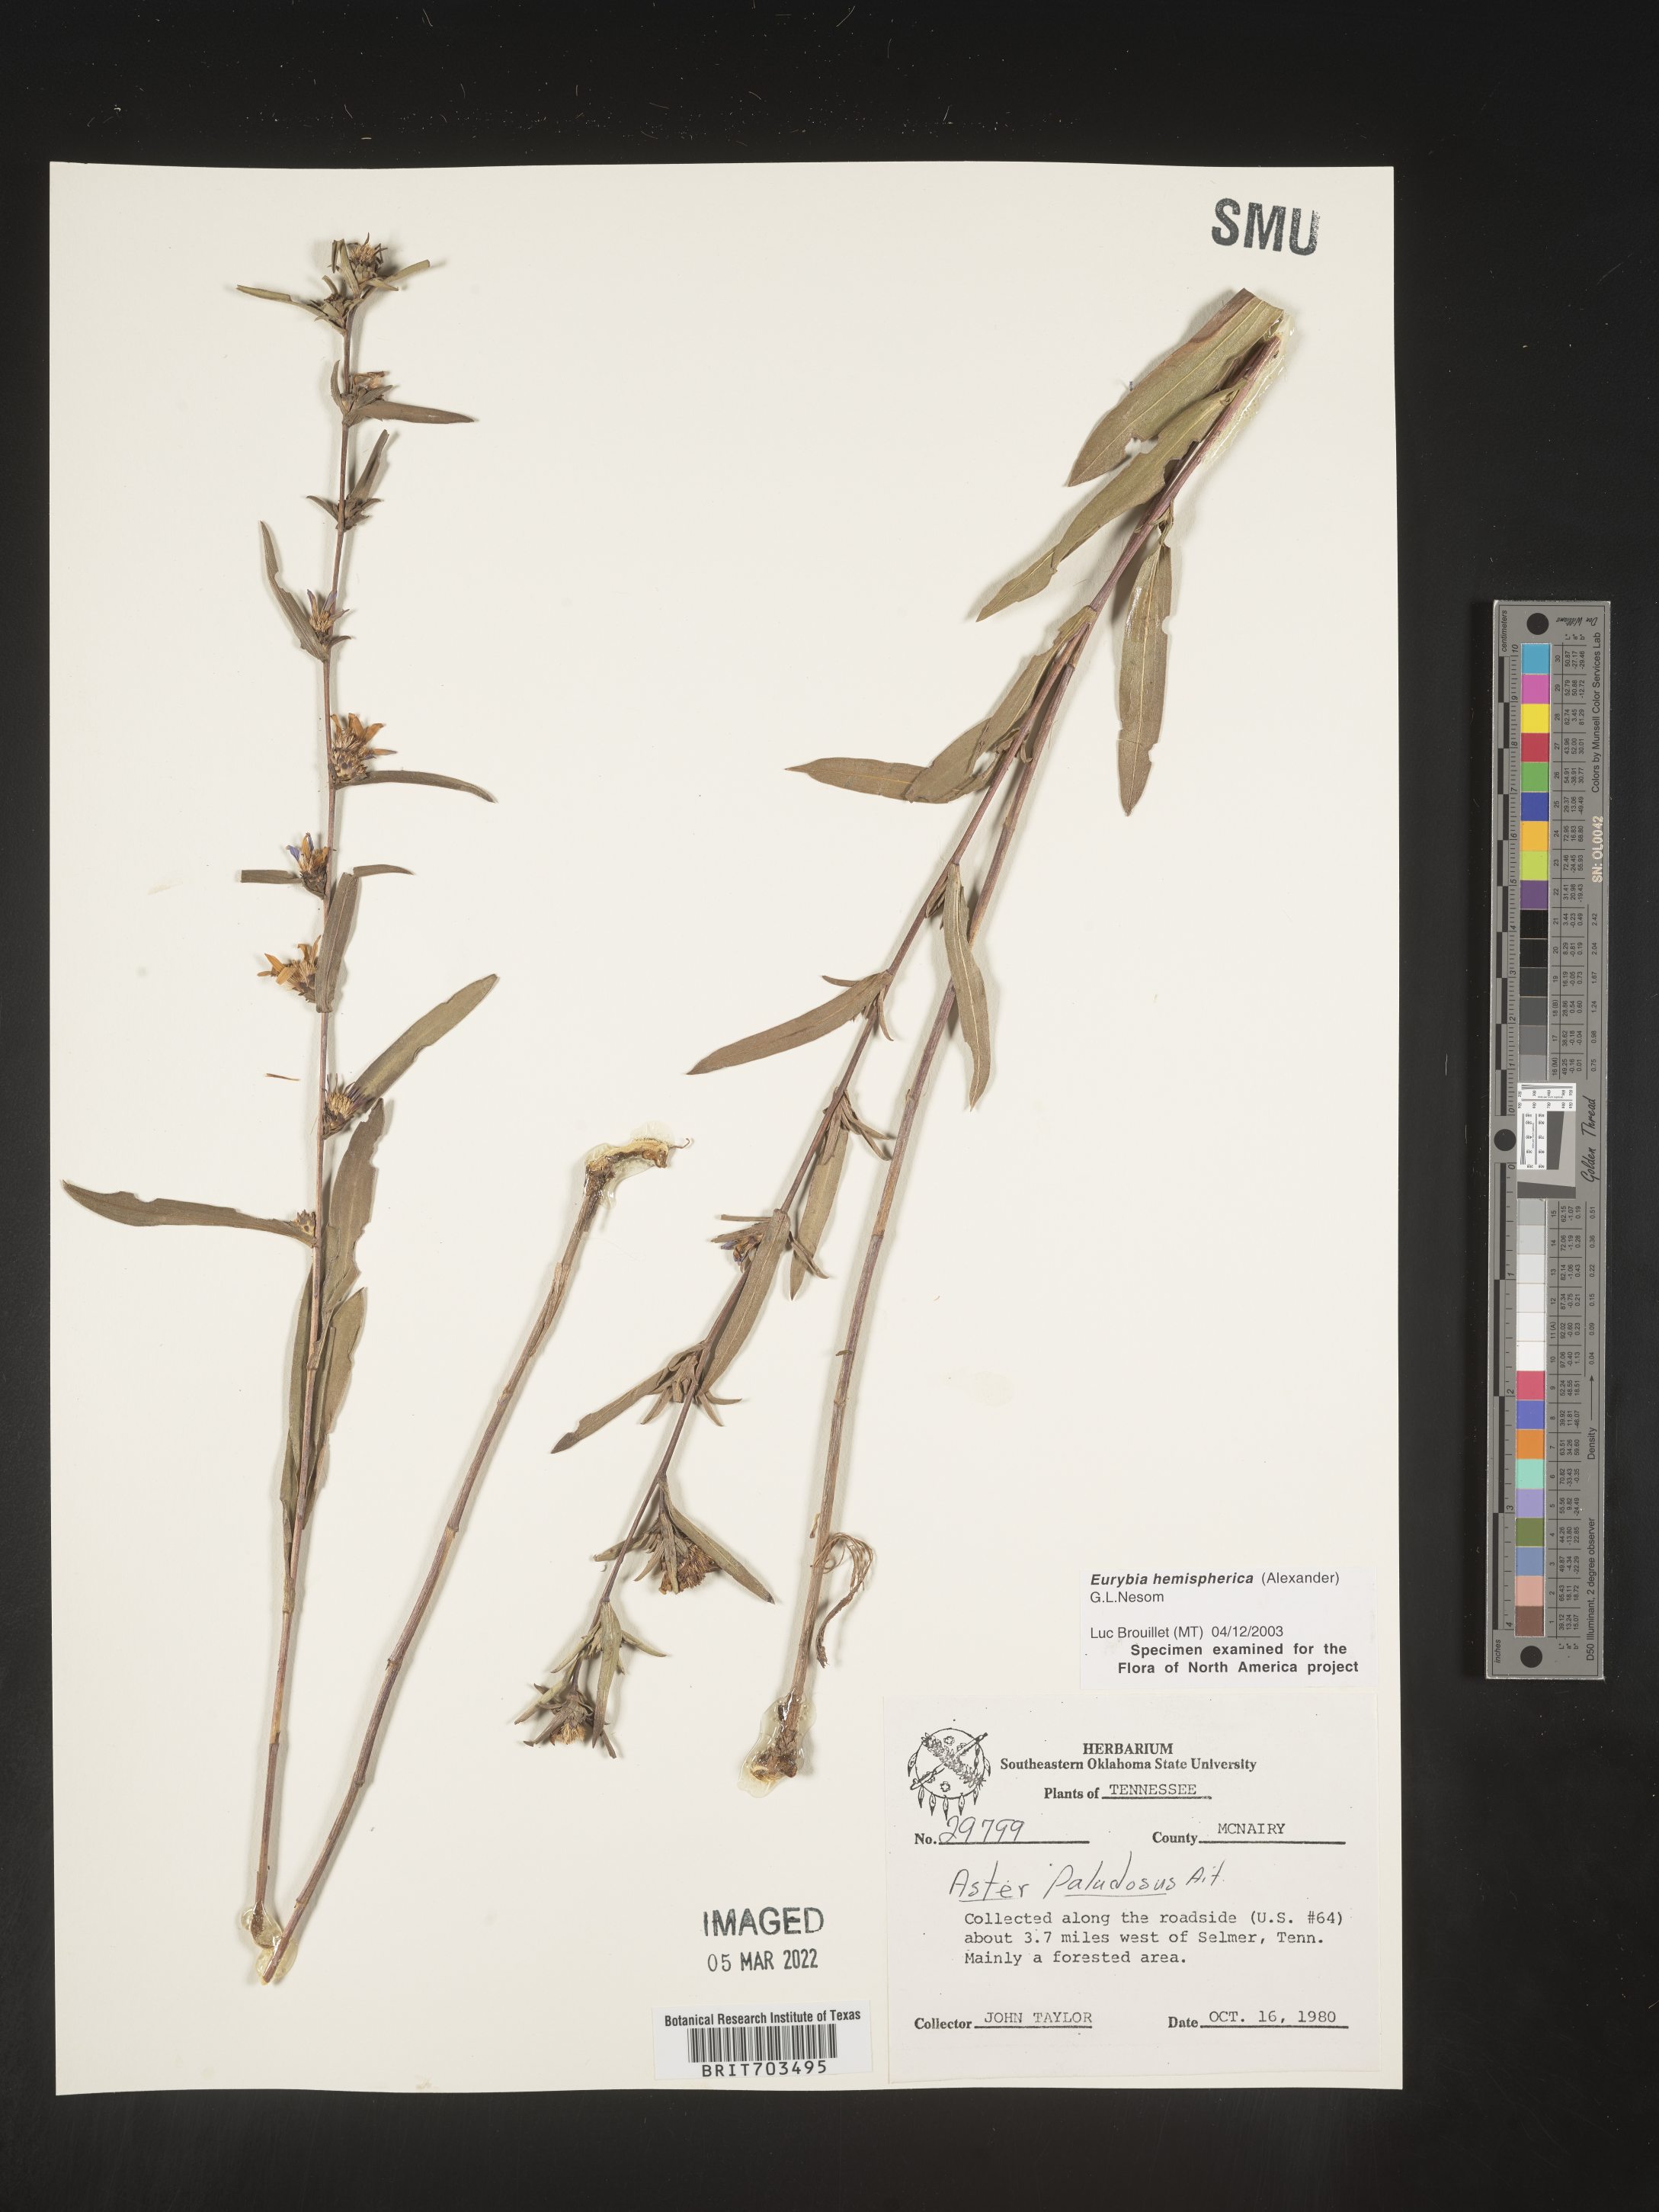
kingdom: Plantae
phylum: Tracheophyta
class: Magnoliopsida
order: Asterales
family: Asteraceae
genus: Eurybia
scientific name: Eurybia hemispherica
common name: Showy aster
